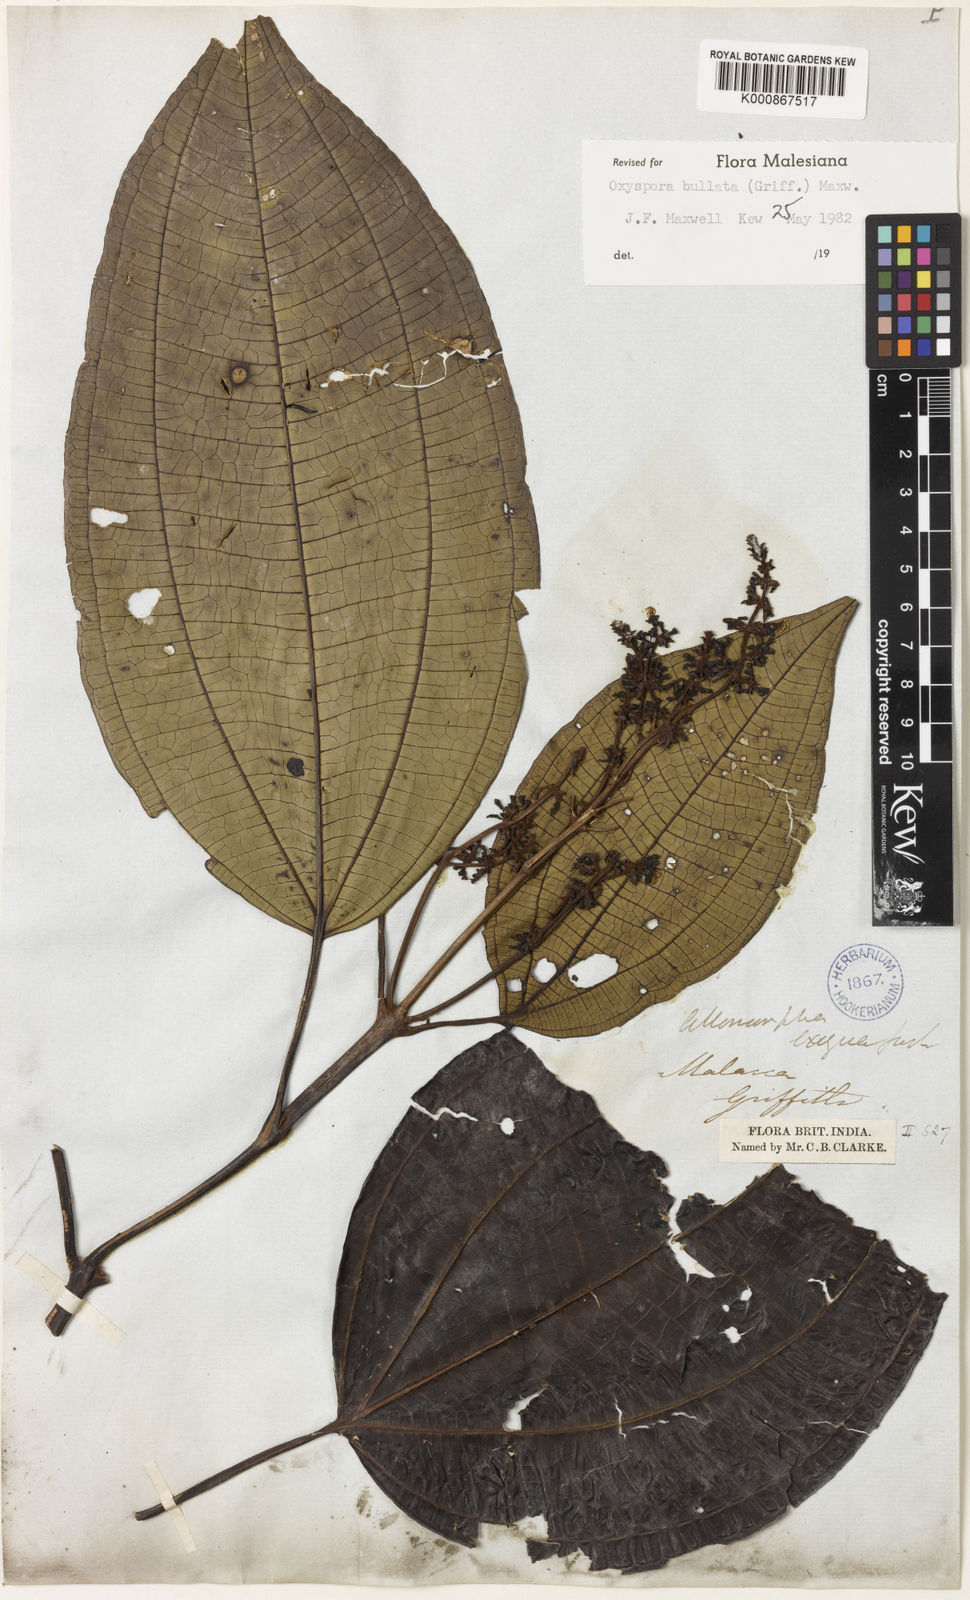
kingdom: Plantae
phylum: Tracheophyta
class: Magnoliopsida
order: Myrtales
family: Melastomataceae
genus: Allomorphia
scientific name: Allomorphia bullata
